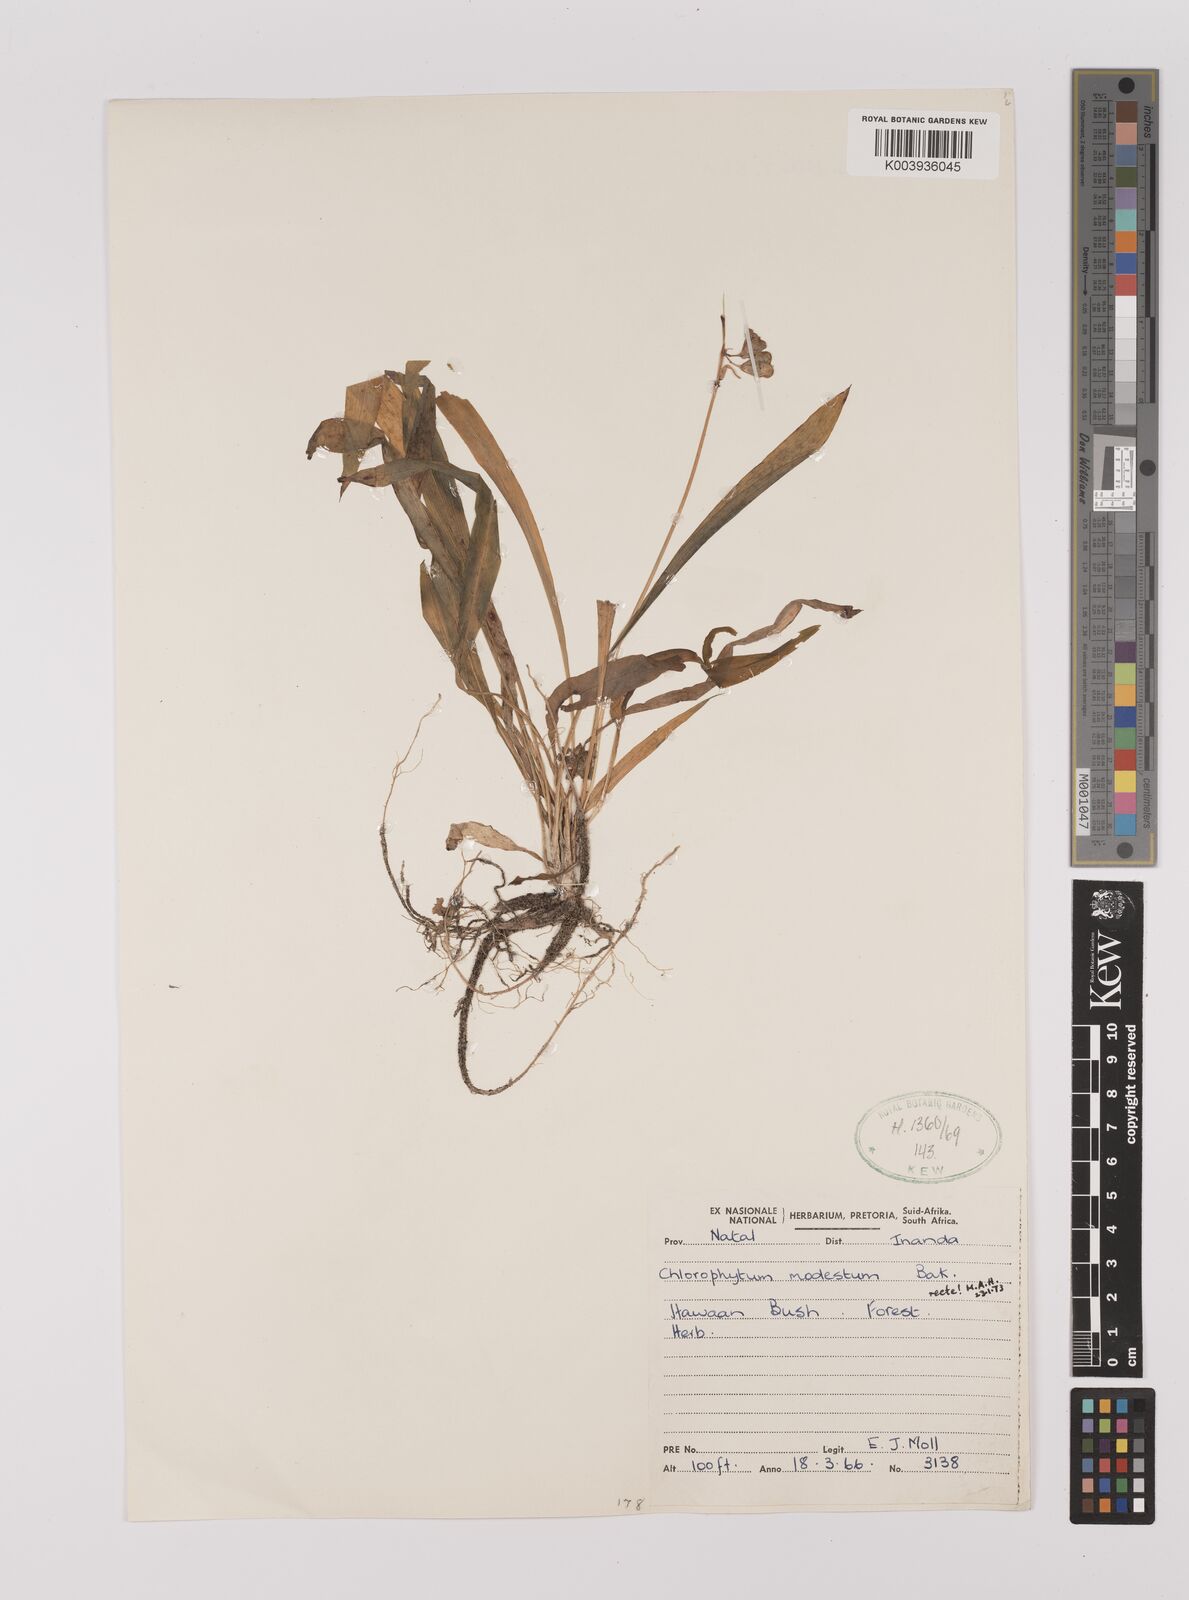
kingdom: Plantae
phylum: Tracheophyta
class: Liliopsida
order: Asparagales
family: Asparagaceae
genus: Chlorophytum
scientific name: Chlorophytum modestum
